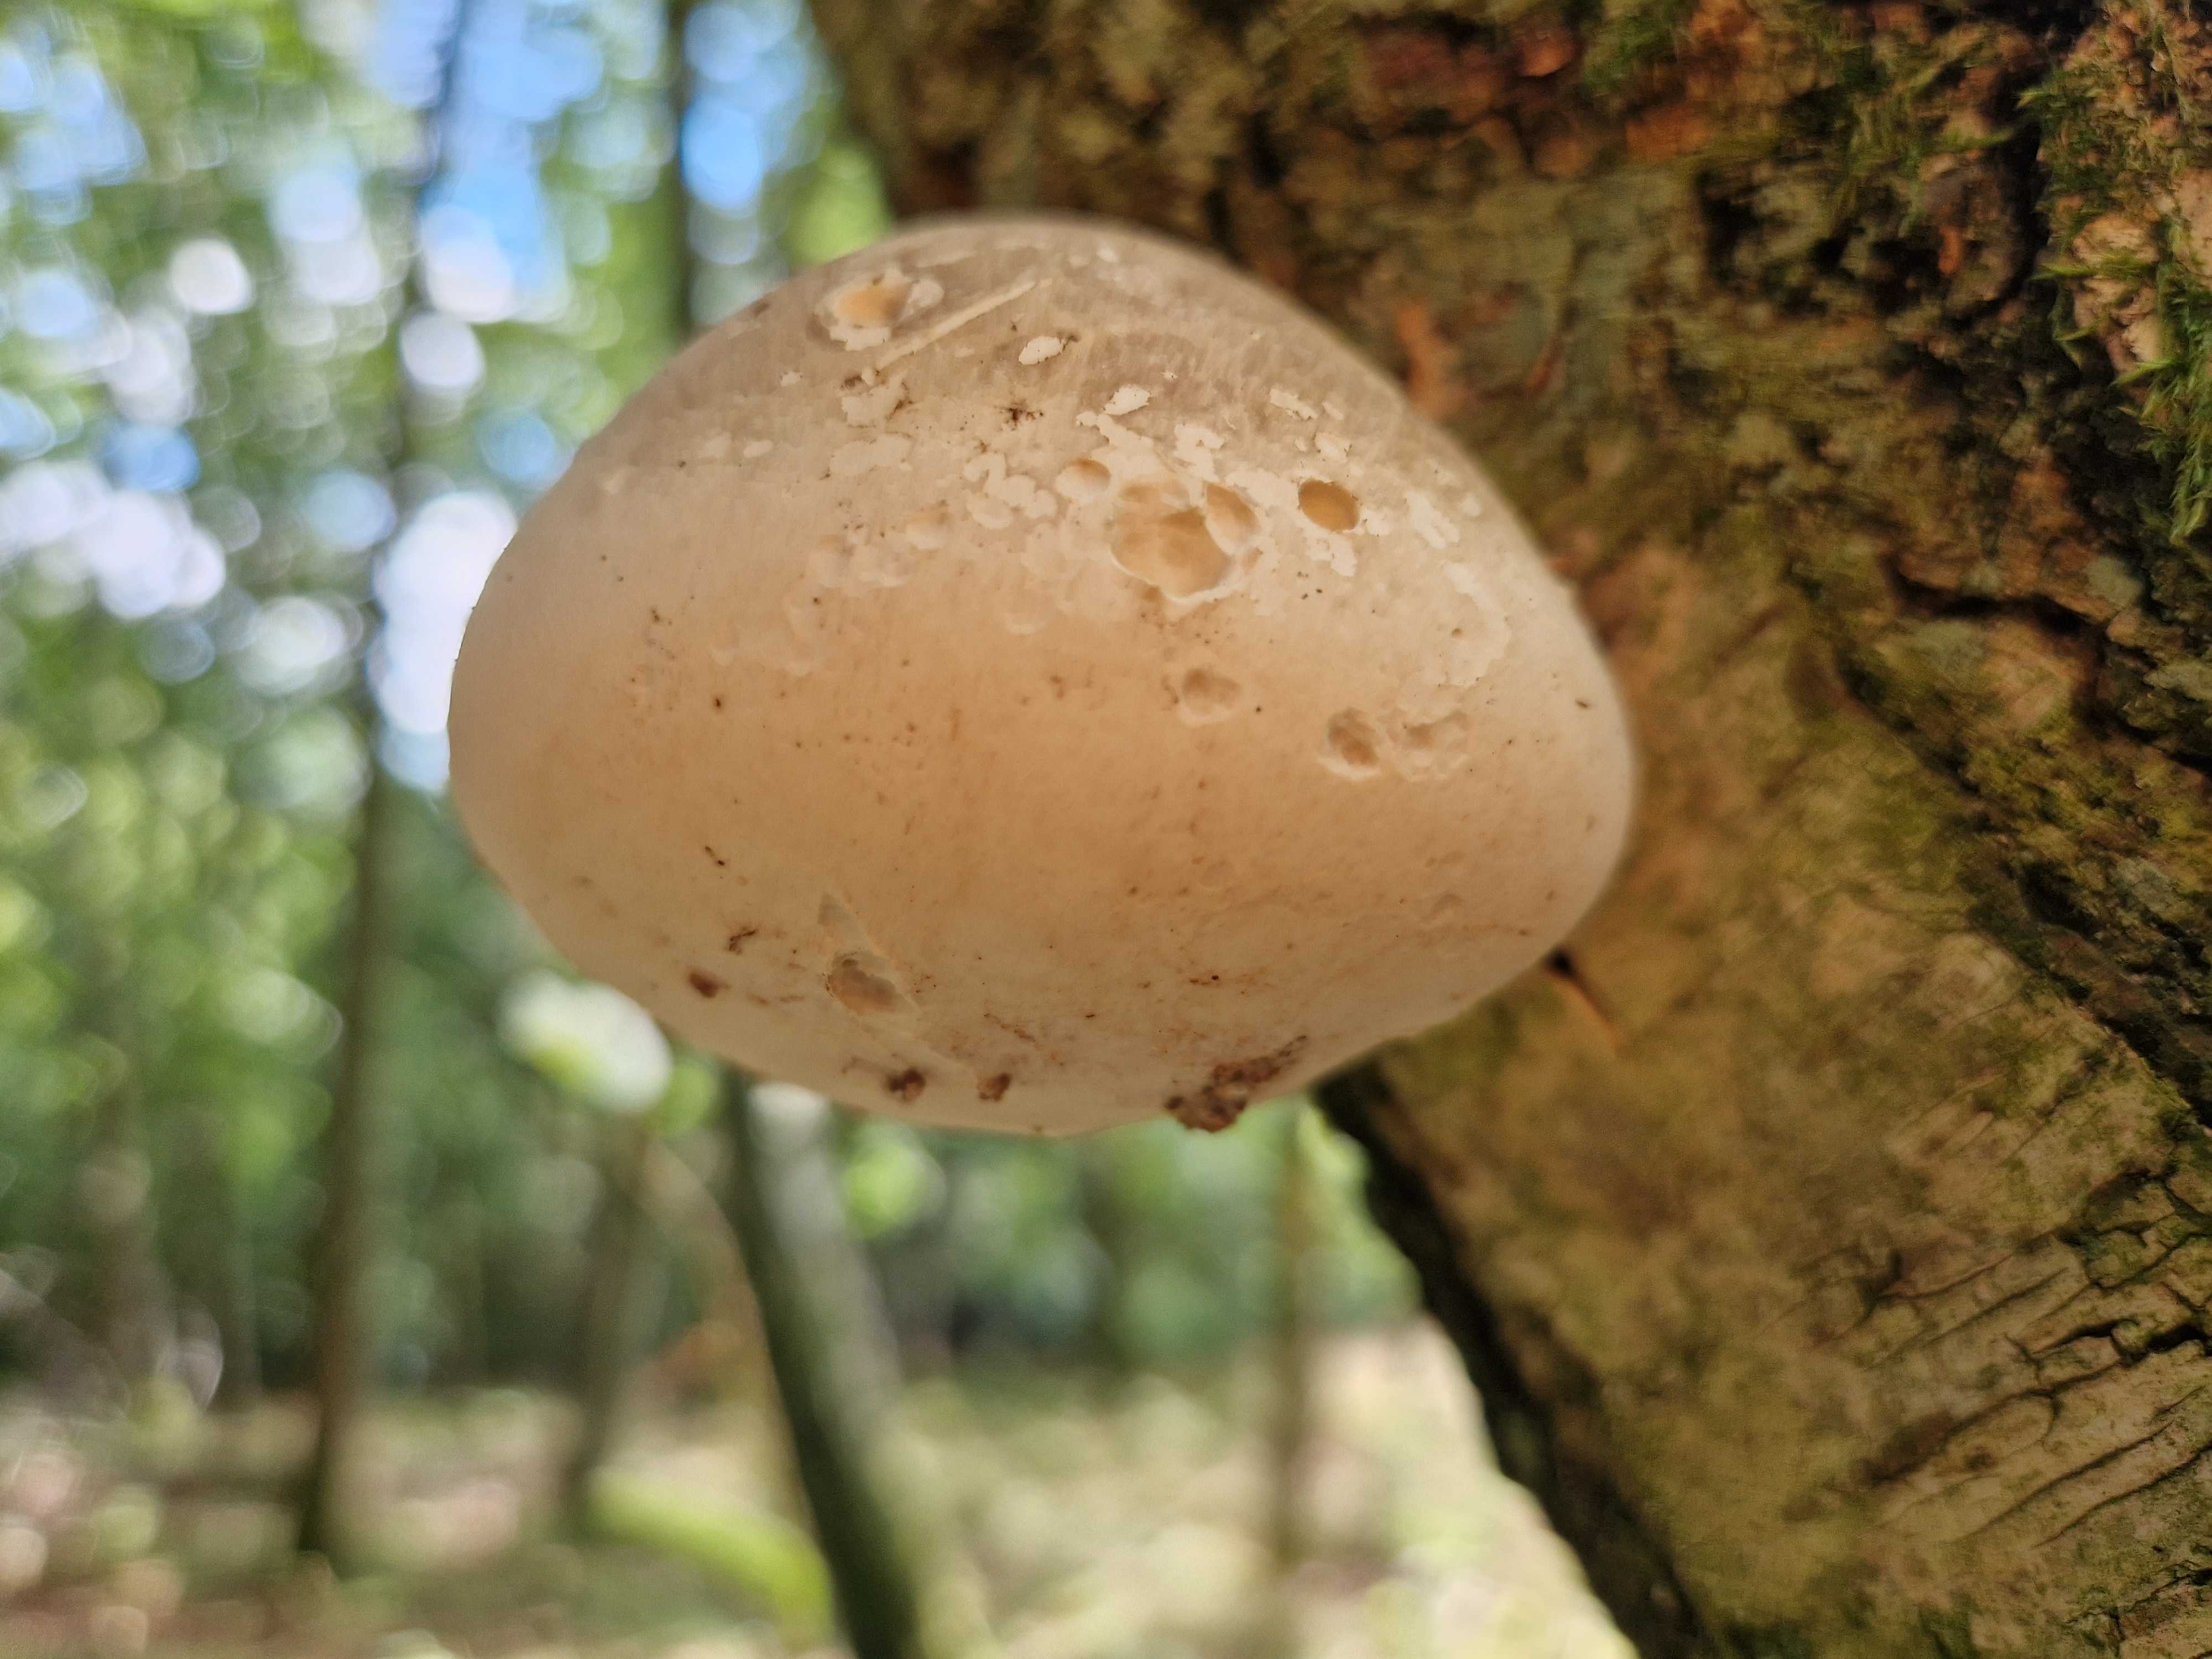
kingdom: Fungi
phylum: Basidiomycota
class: Agaricomycetes
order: Polyporales
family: Fomitopsidaceae
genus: Fomitopsis
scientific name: Fomitopsis betulina
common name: birkeporesvamp
